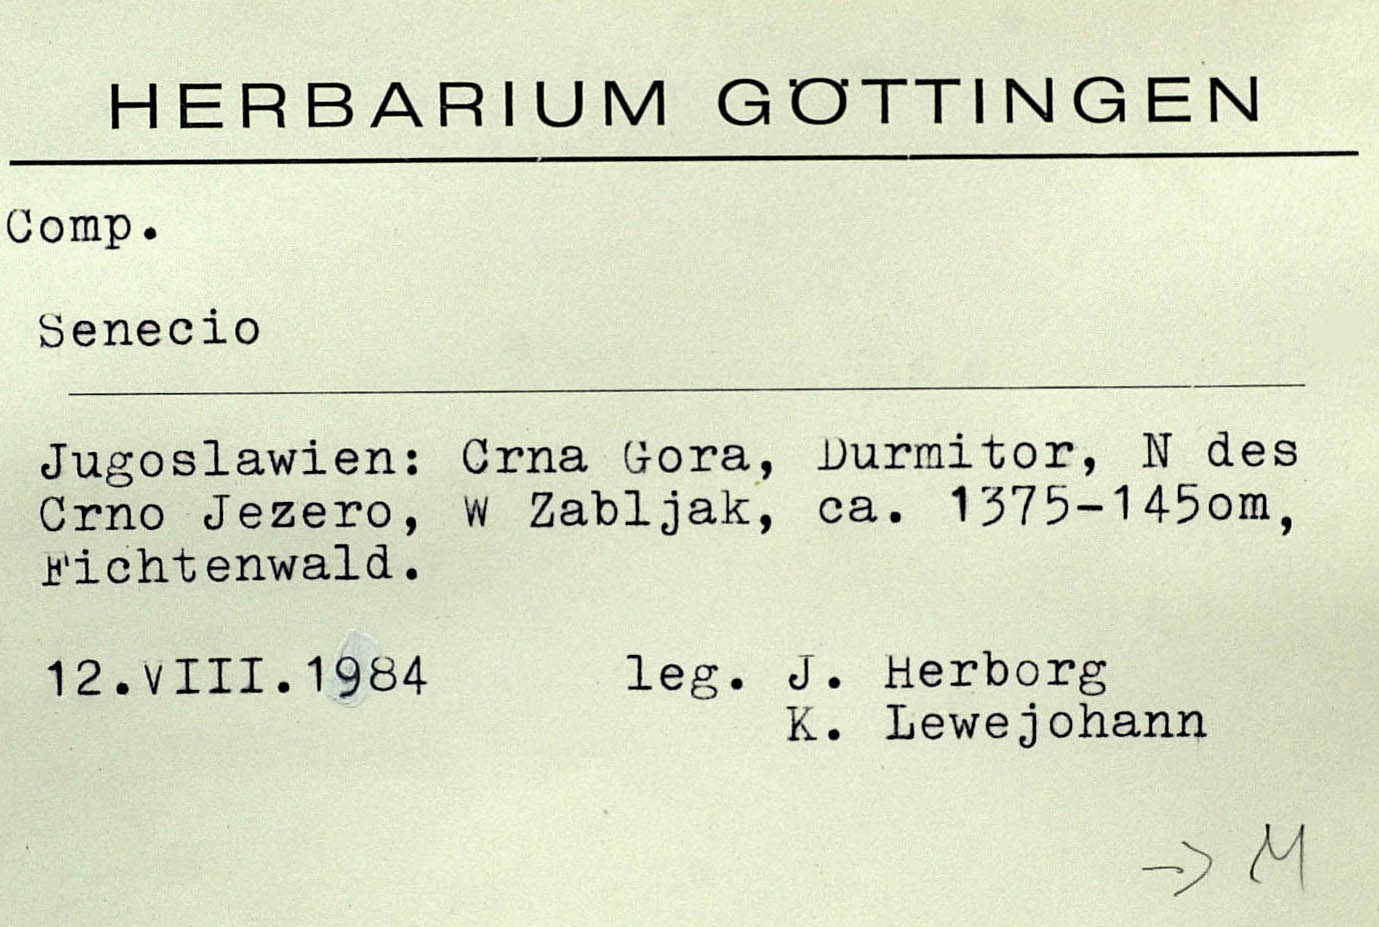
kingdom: Plantae
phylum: Tracheophyta
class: Magnoliopsida
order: Asterales
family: Asteraceae
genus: Senecio
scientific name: Senecio hercynicus
